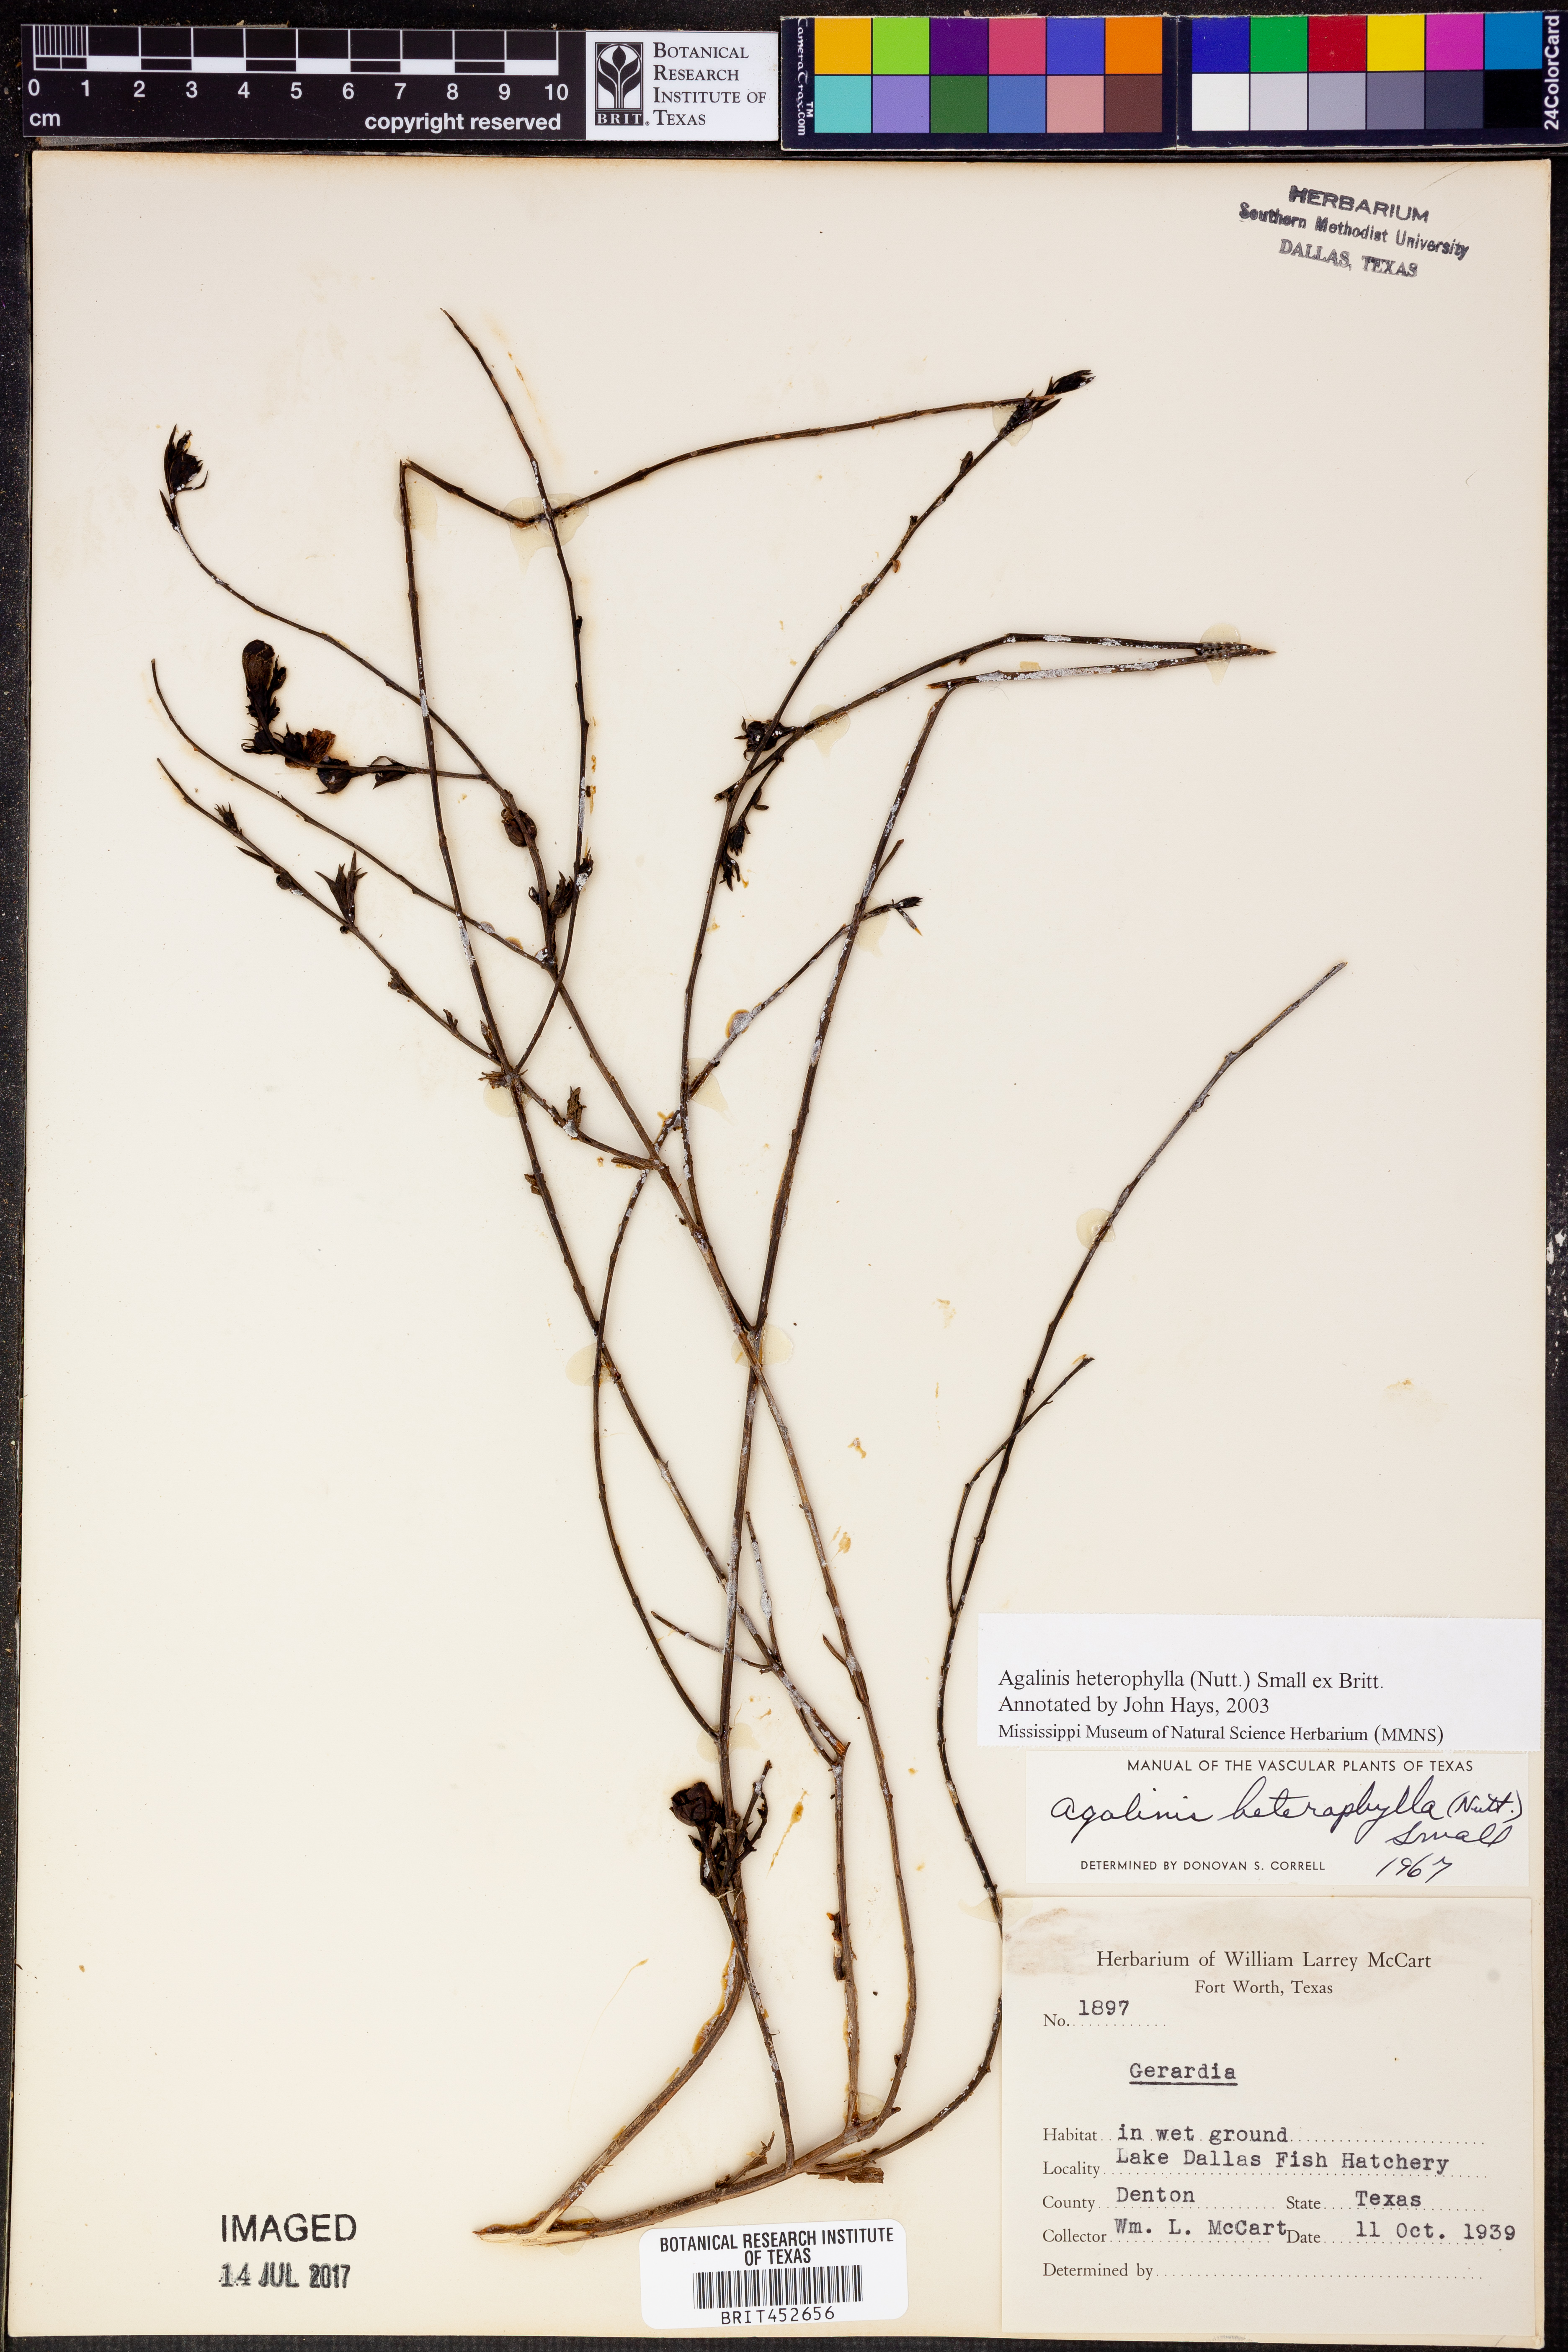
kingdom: Plantae
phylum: Tracheophyta
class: Magnoliopsida
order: Lamiales
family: Orobanchaceae
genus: Agalinis
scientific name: Agalinis heterophylla
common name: Prairie agalinis
